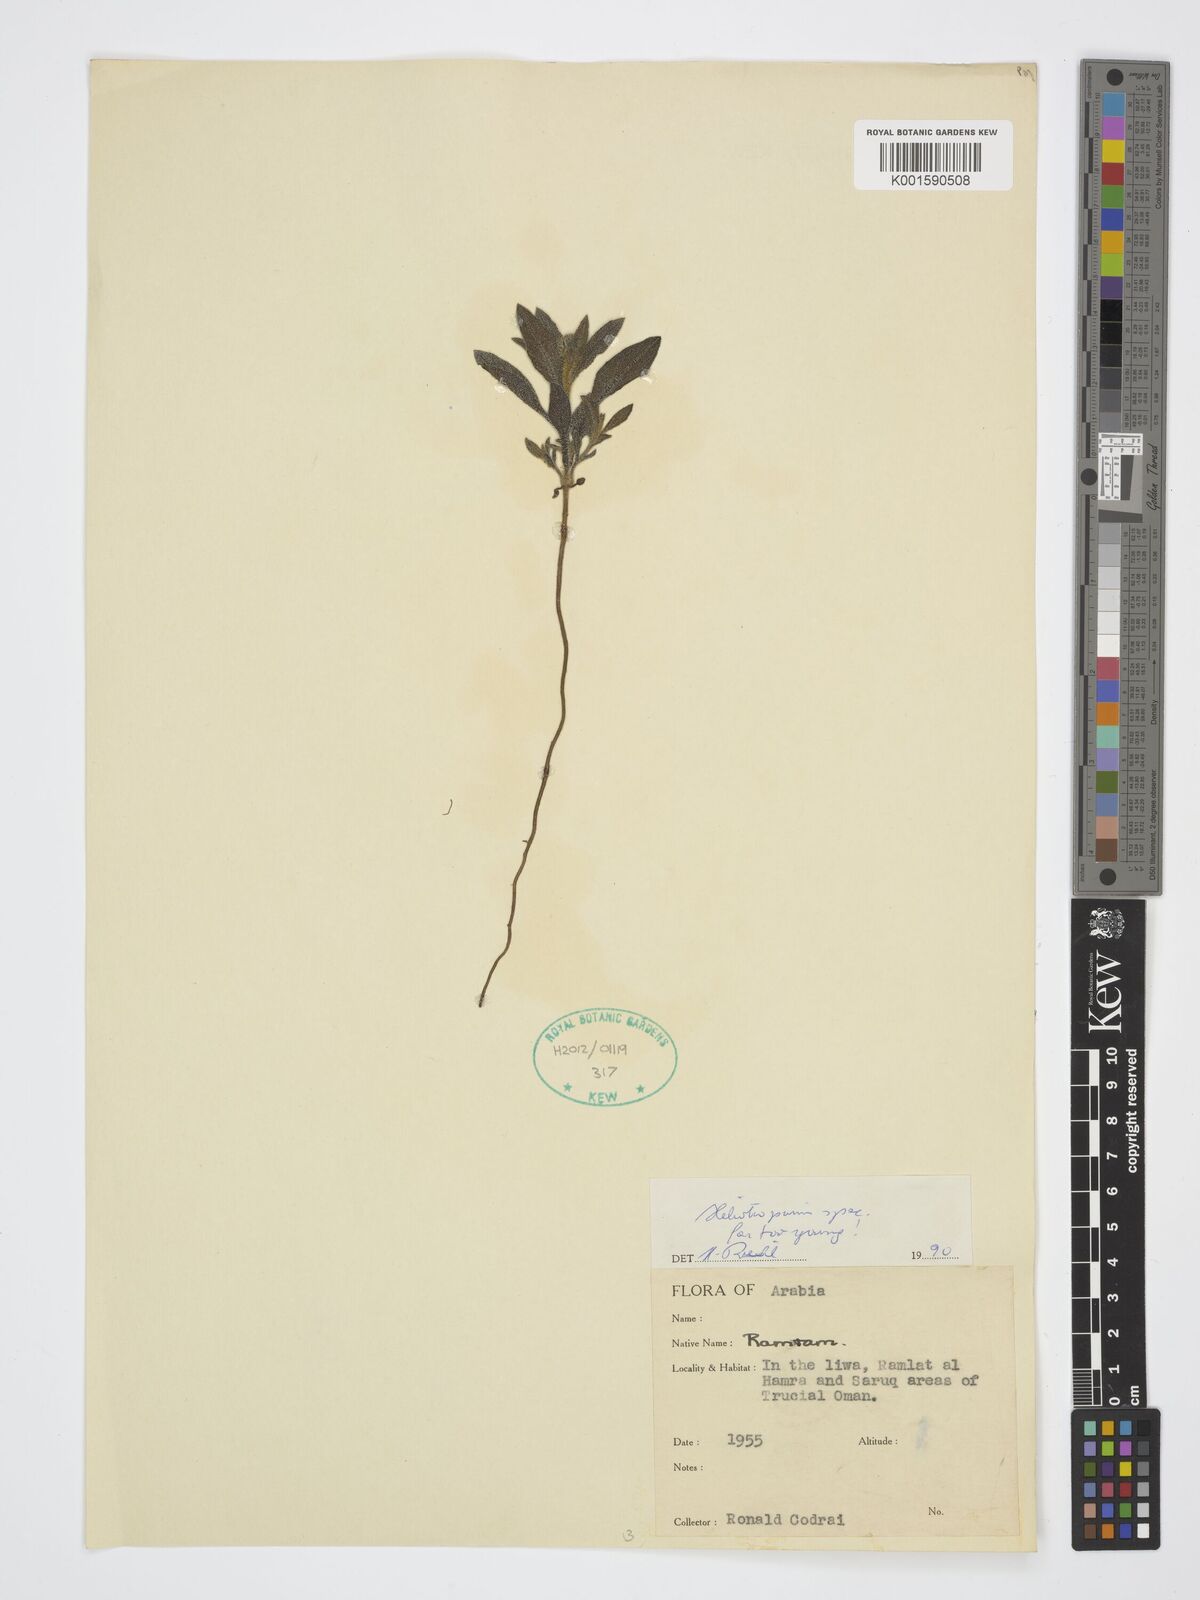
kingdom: Plantae
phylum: Tracheophyta
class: Magnoliopsida
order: Boraginales
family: Heliotropiaceae
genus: Heliotropium
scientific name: Heliotropium
